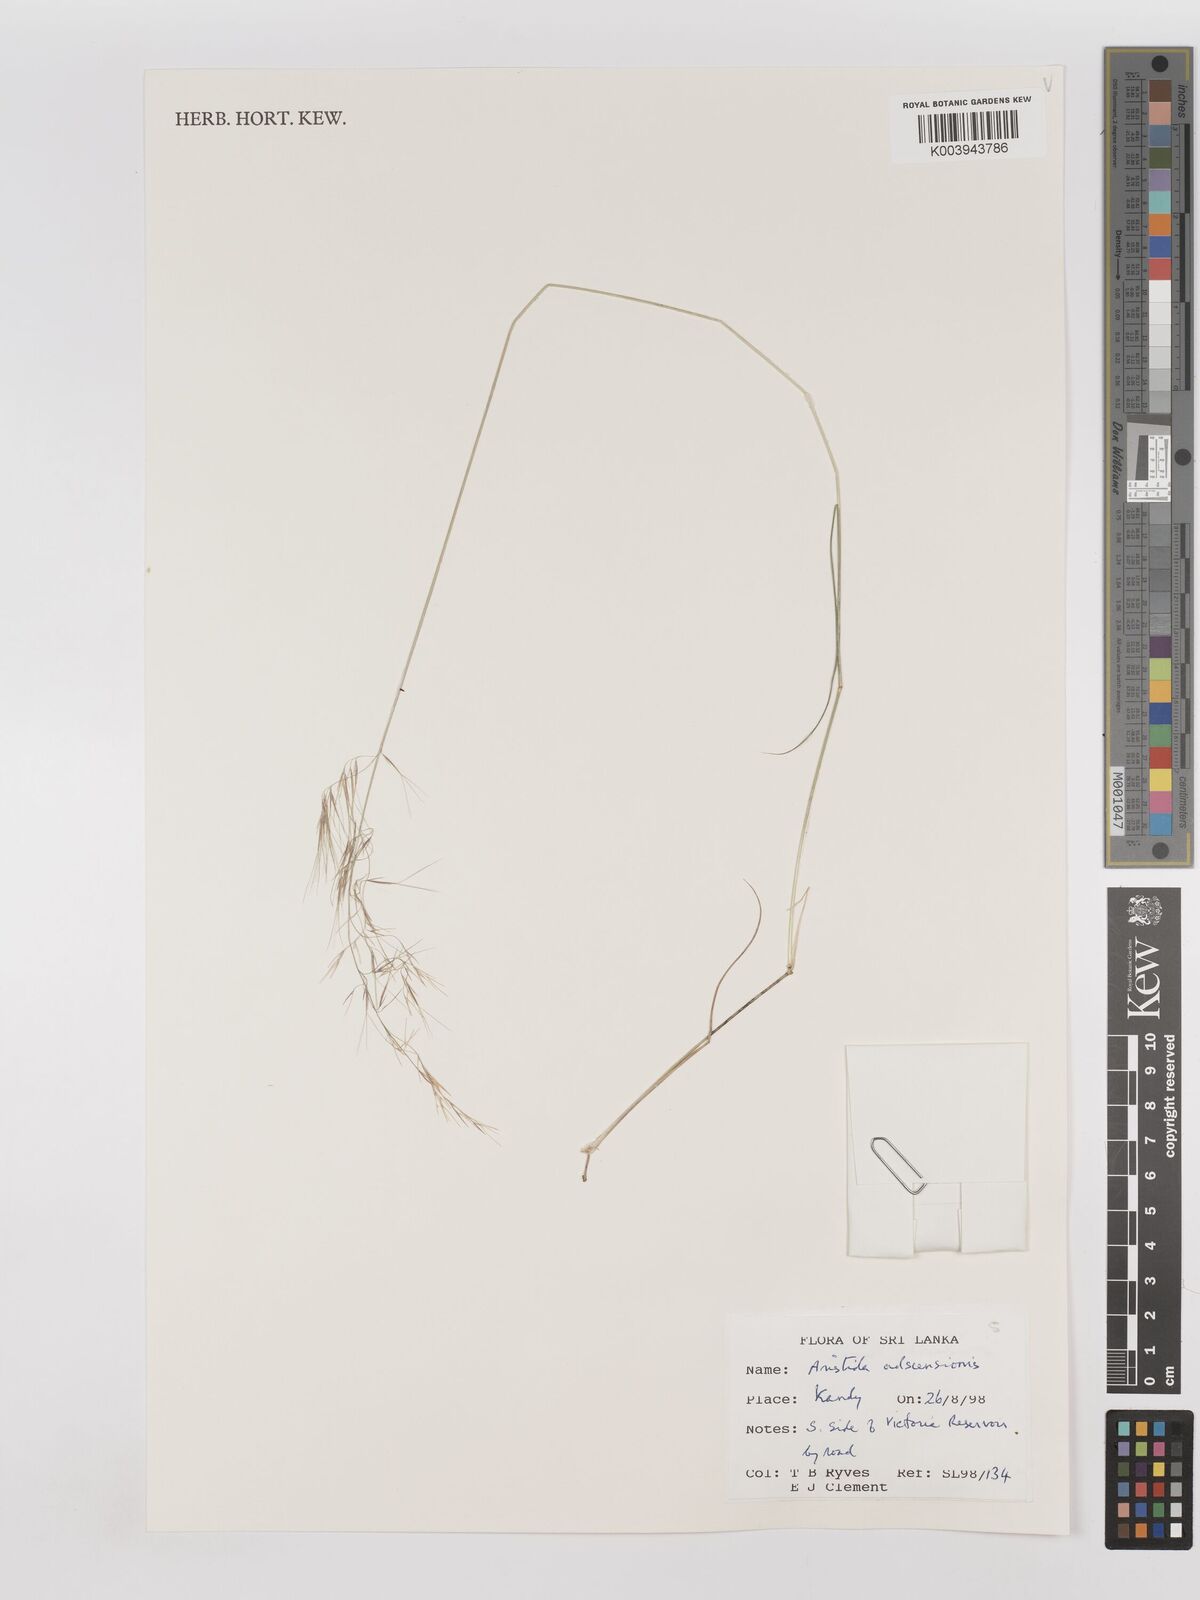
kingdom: Plantae
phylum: Tracheophyta
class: Liliopsida
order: Poales
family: Poaceae
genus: Aristida
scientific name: Aristida adscensionis
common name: Sixweeks threeawn
